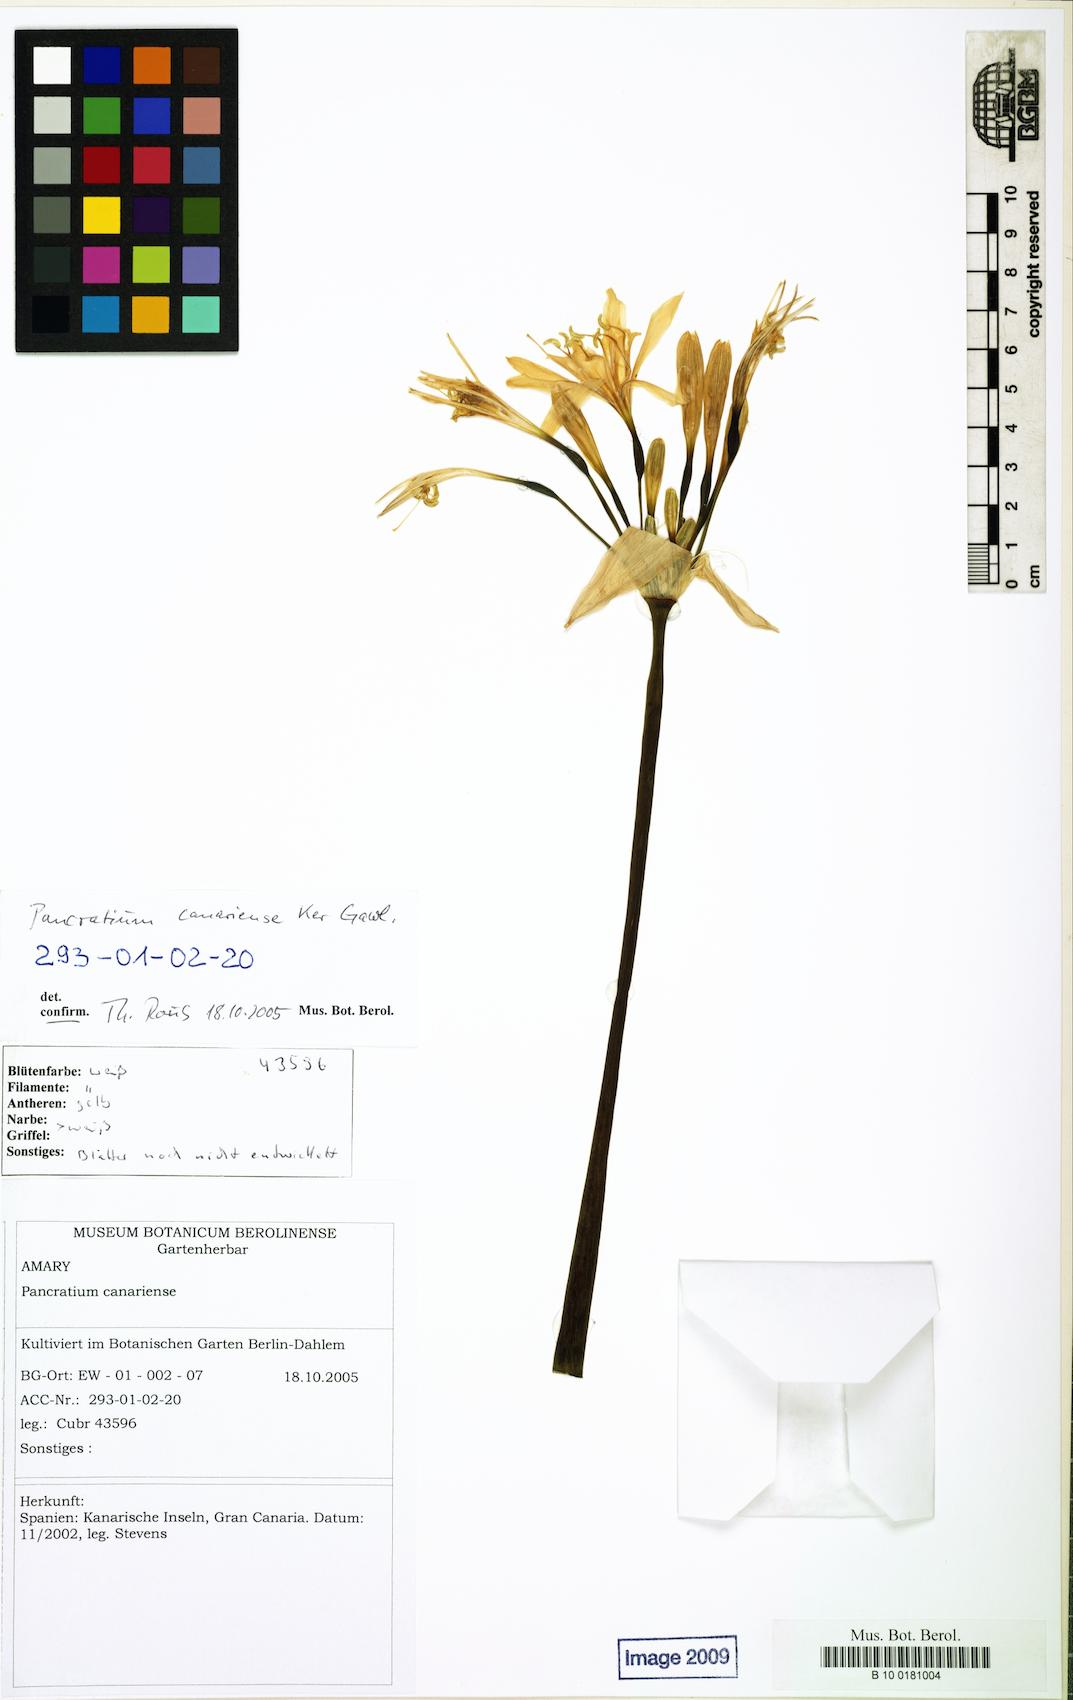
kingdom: Plantae
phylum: Tracheophyta
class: Liliopsida
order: Asparagales
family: Amaryllidaceae
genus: Pancratium
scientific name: Pancratium canariense
